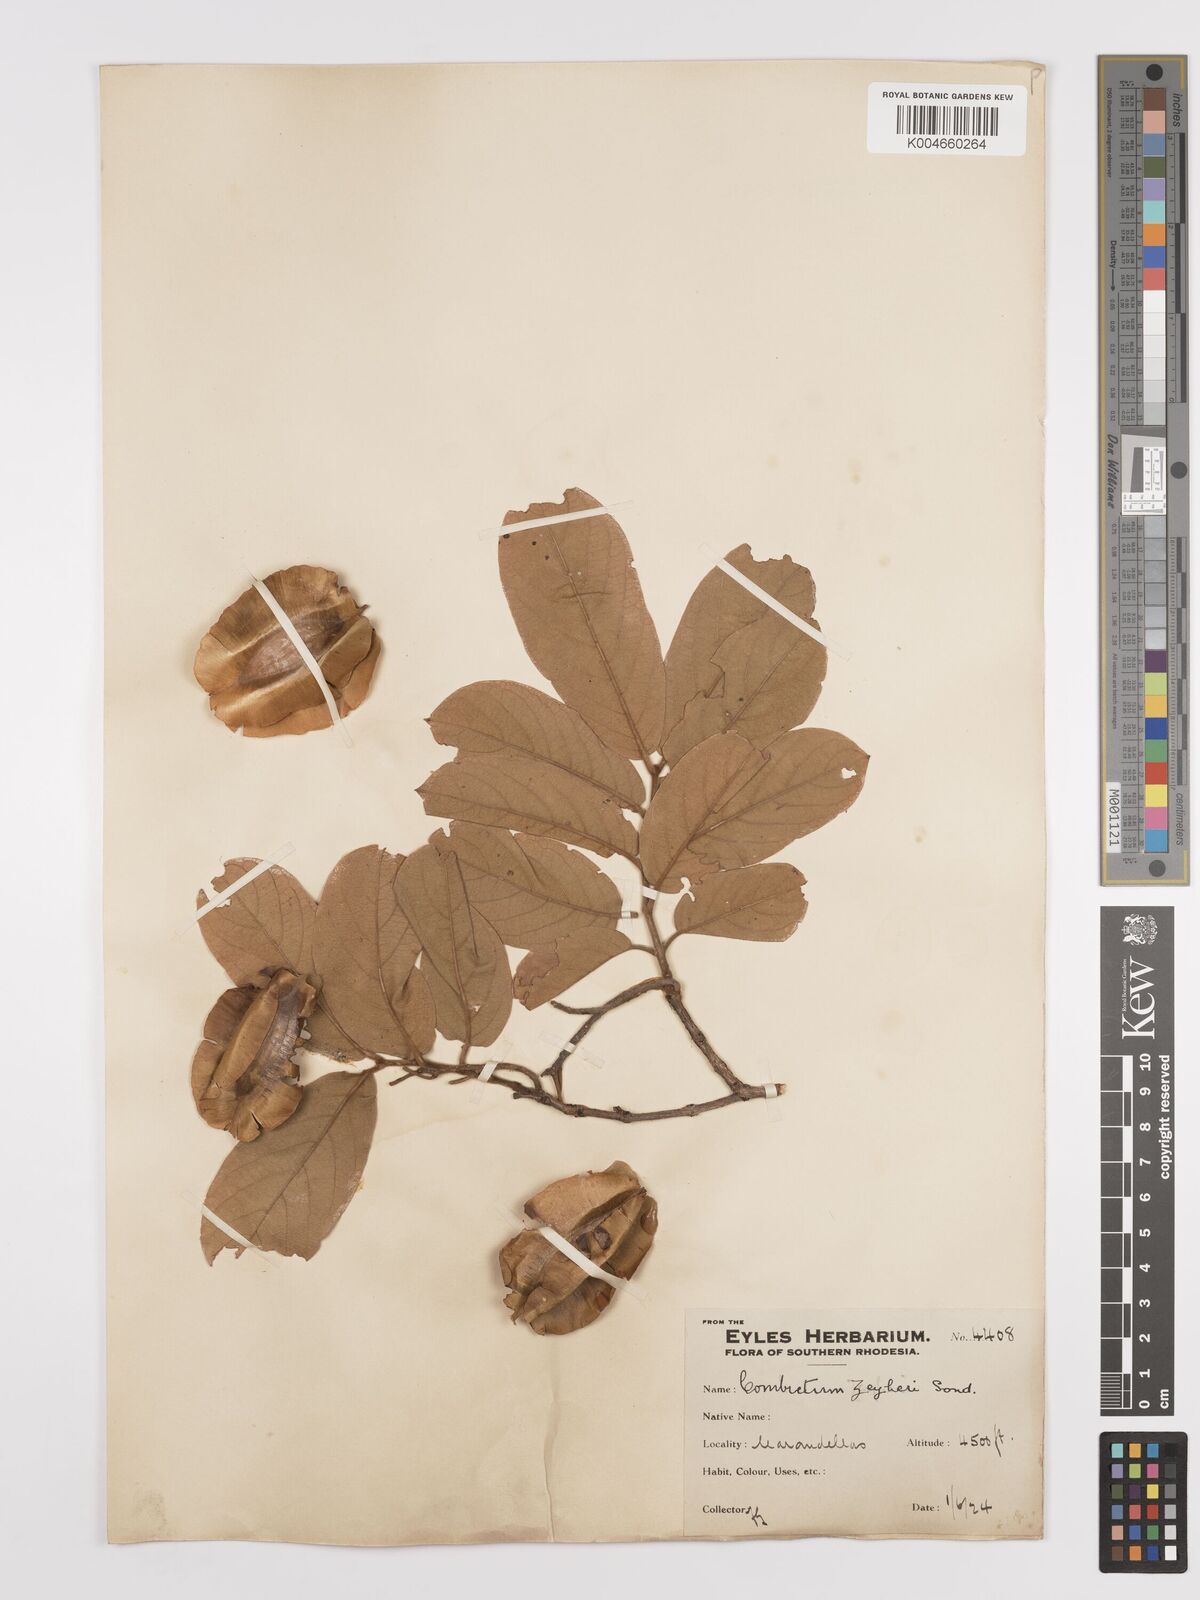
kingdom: Plantae
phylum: Tracheophyta
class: Magnoliopsida
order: Myrtales
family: Combretaceae
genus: Combretum
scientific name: Combretum zeyheri
